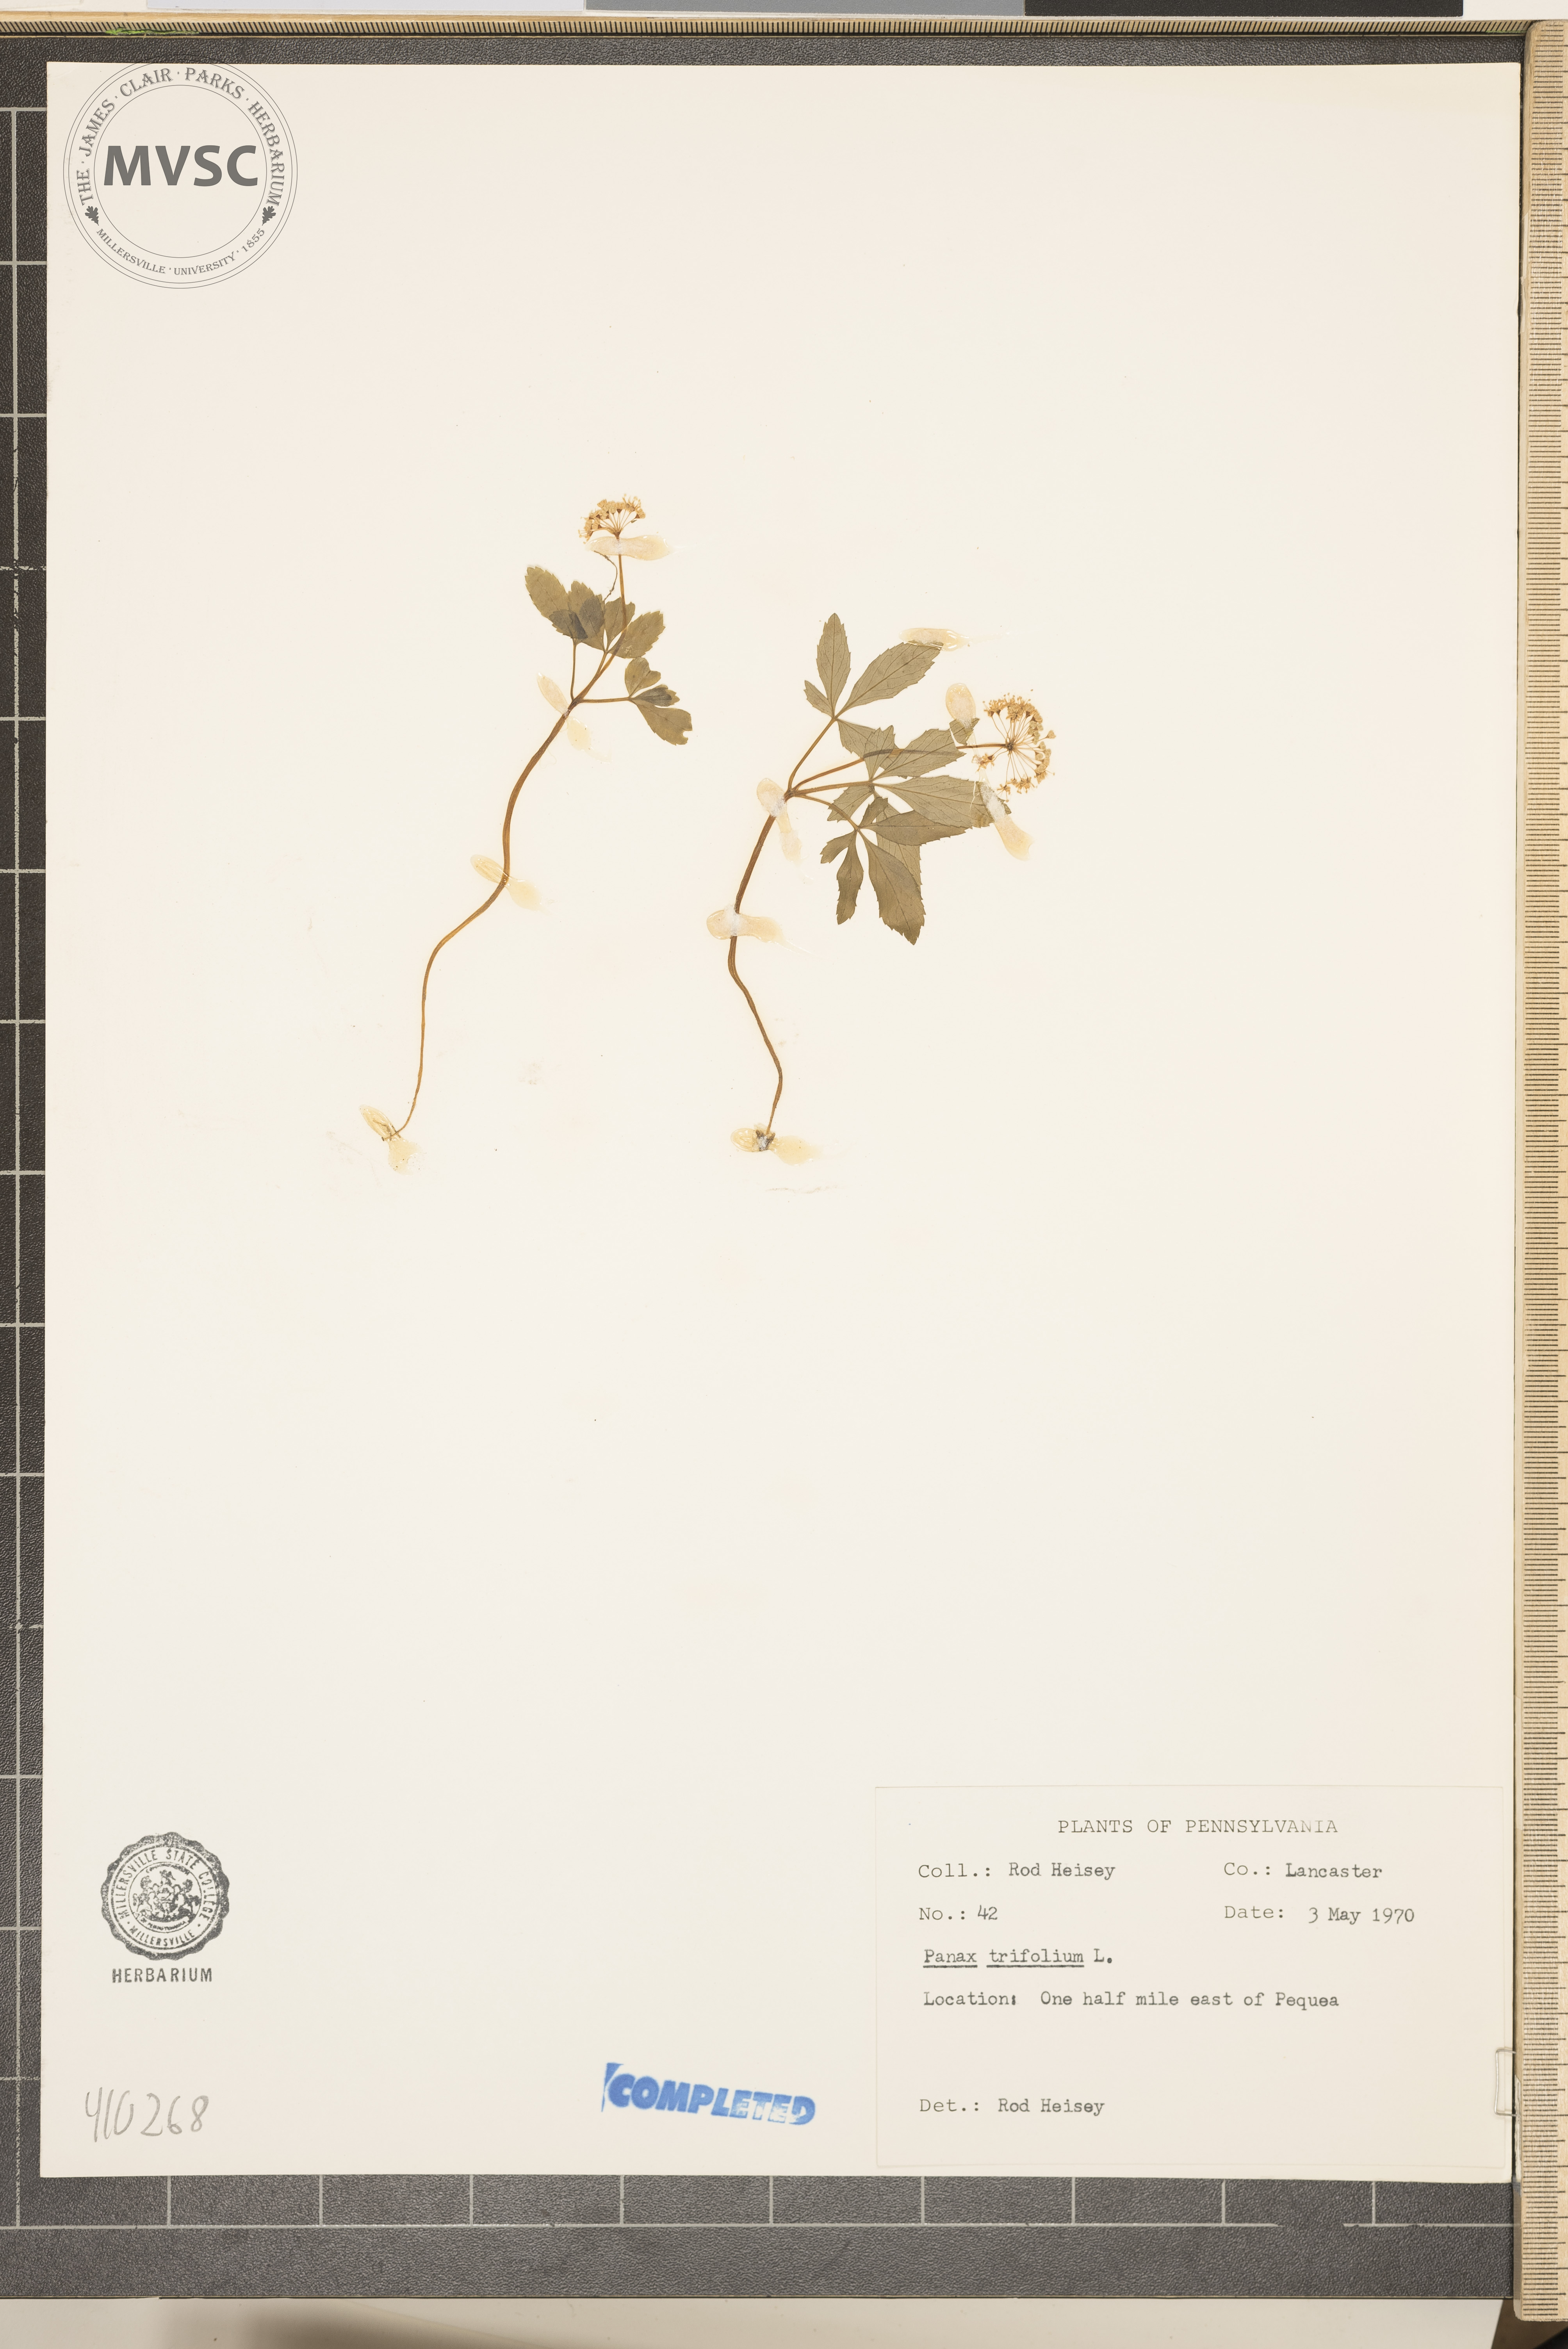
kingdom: Plantae
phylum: Tracheophyta
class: Magnoliopsida
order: Apiales
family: Araliaceae
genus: Panax
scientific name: Panax trifolius
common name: Dwarf ginseng
